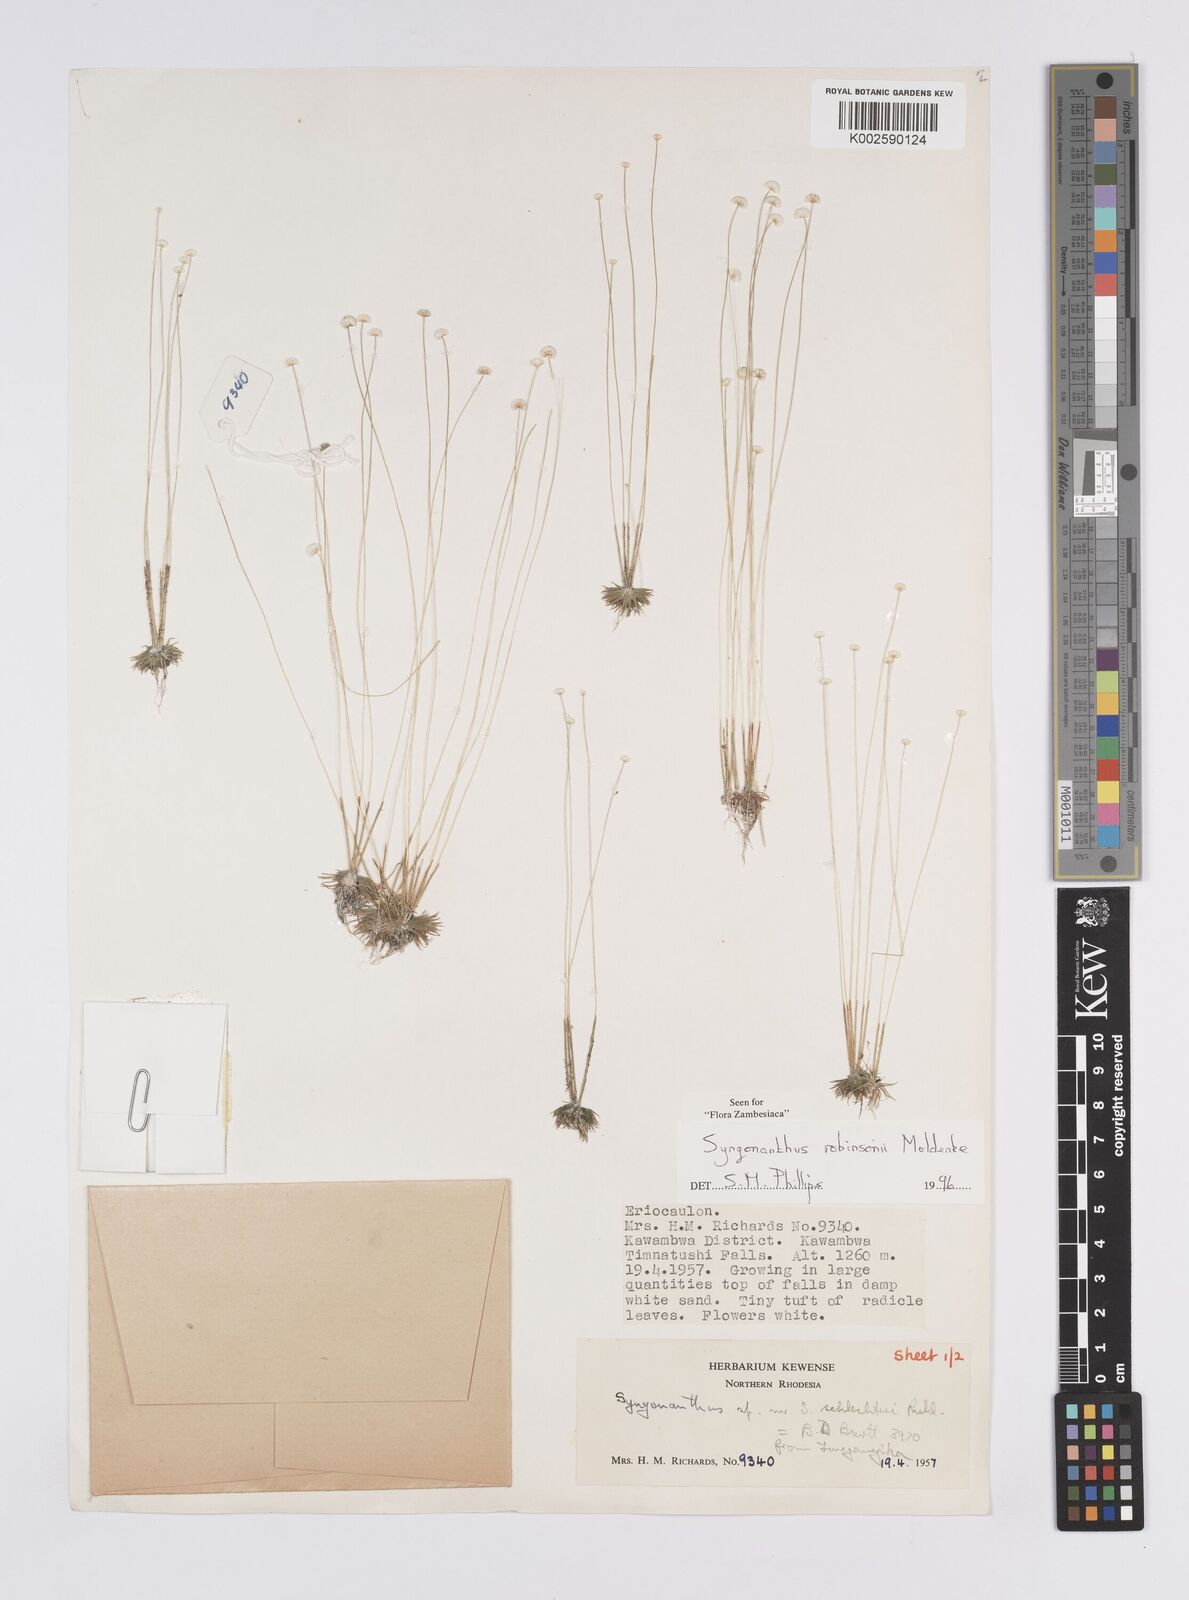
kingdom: Plantae
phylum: Tracheophyta
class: Liliopsida
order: Poales
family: Eriocaulaceae
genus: Syngonanthus
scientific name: Syngonanthus robinsonii
